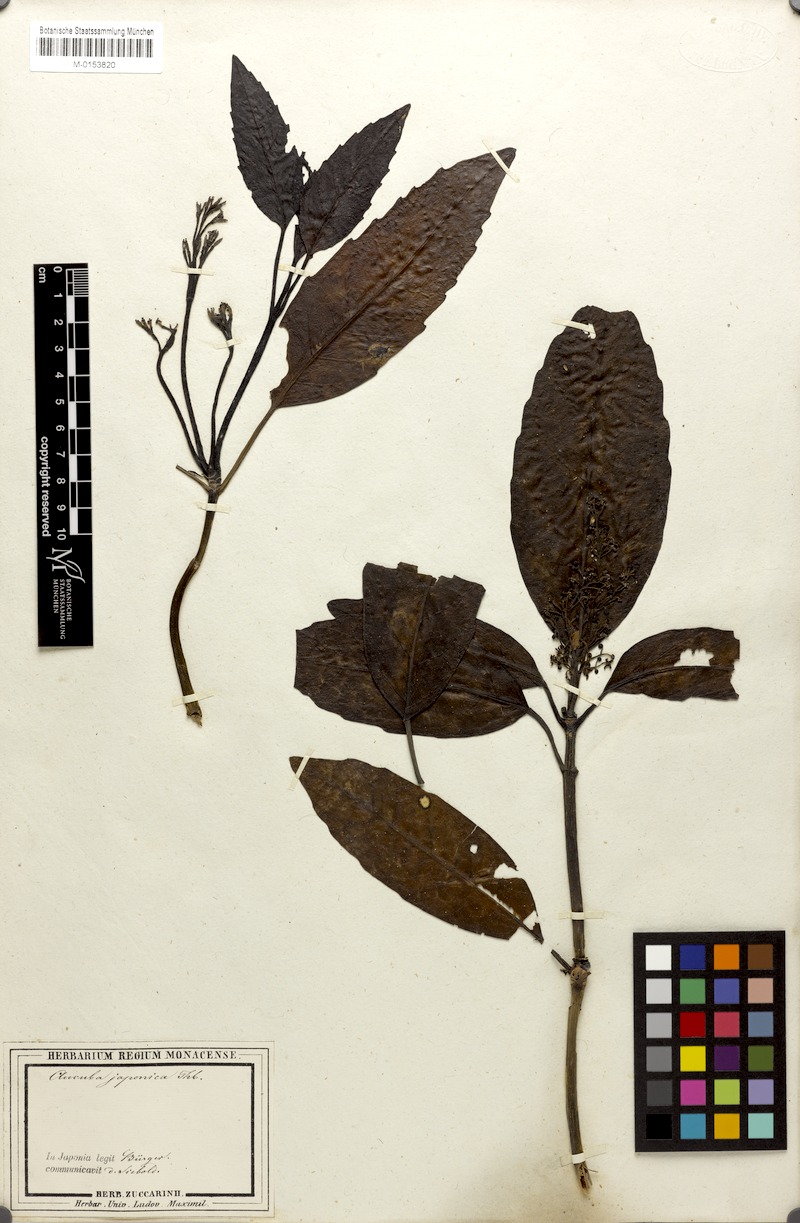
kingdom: Plantae
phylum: Tracheophyta
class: Magnoliopsida
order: Garryales
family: Garryaceae
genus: Aucuba
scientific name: Aucuba japonica
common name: Spotted-laurel
